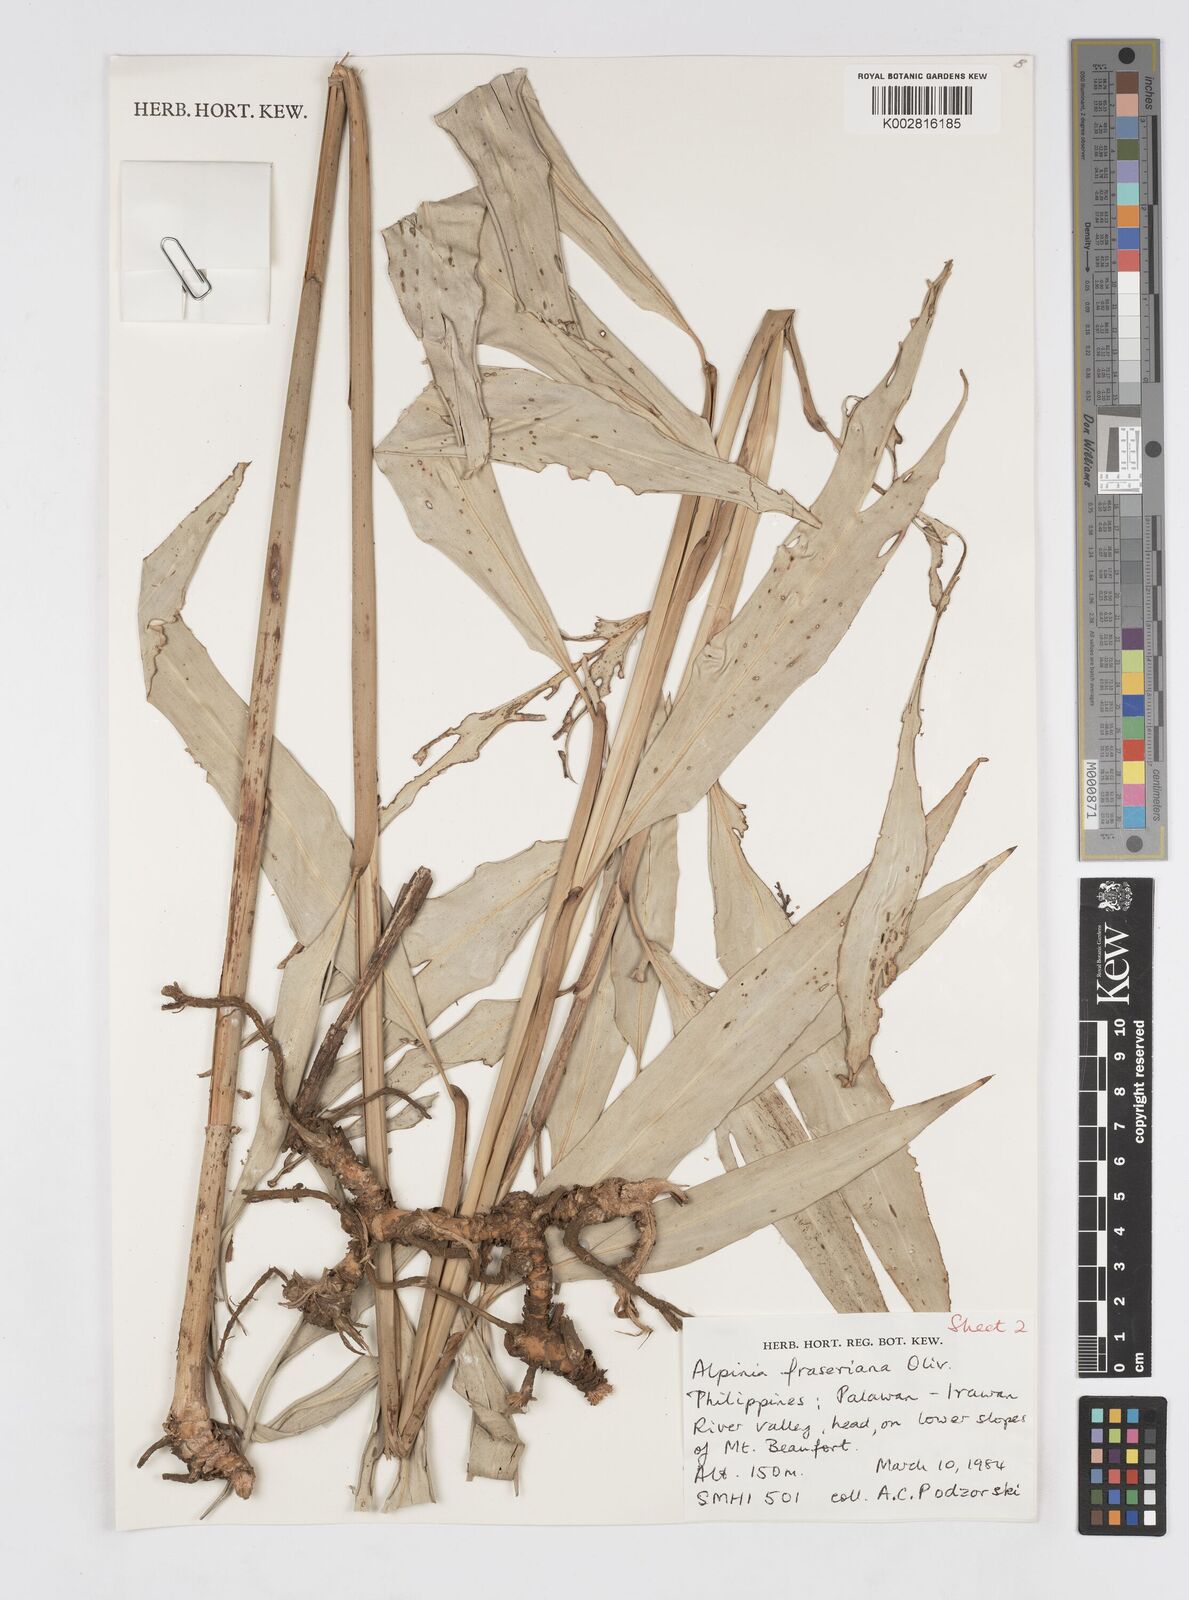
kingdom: Plantae
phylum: Tracheophyta
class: Liliopsida
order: Zingiberales
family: Zingiberaceae
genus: Alpinia
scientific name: Alpinia foxworthyi
